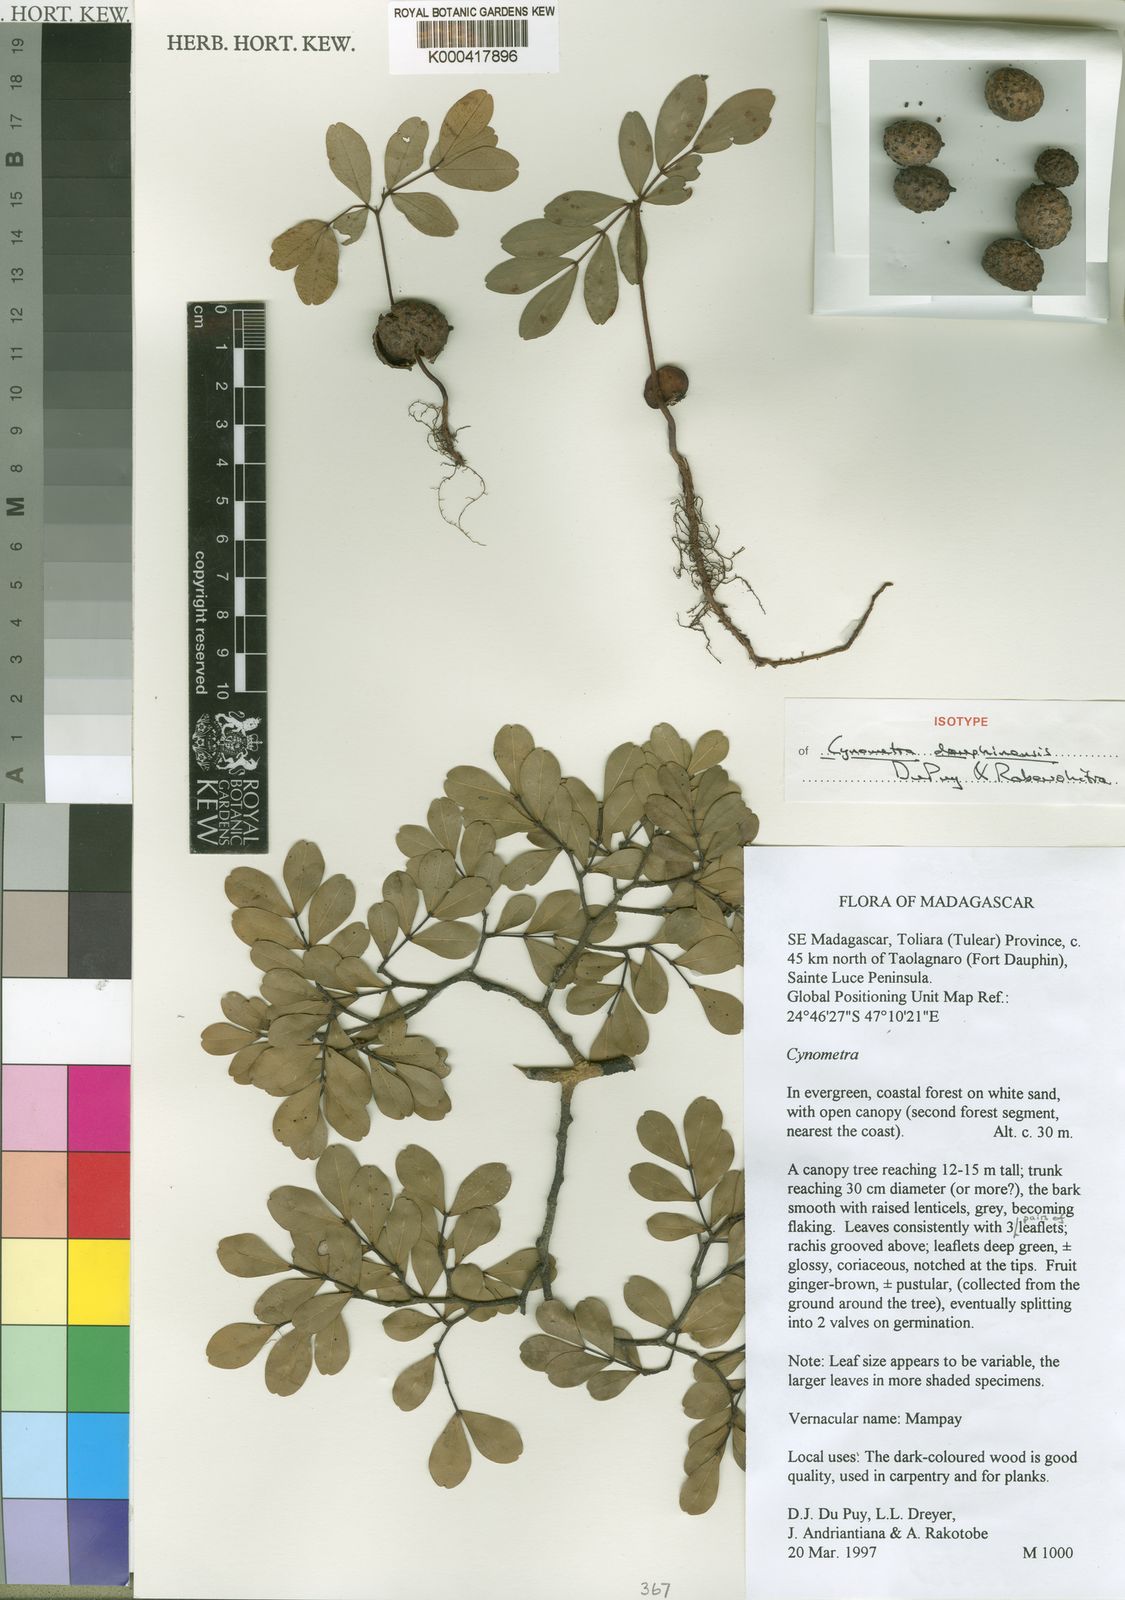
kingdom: Plantae
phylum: Tracheophyta
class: Magnoliopsida
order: Fabales
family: Fabaceae
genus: Cynometra
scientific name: Cynometra dauphinensis
